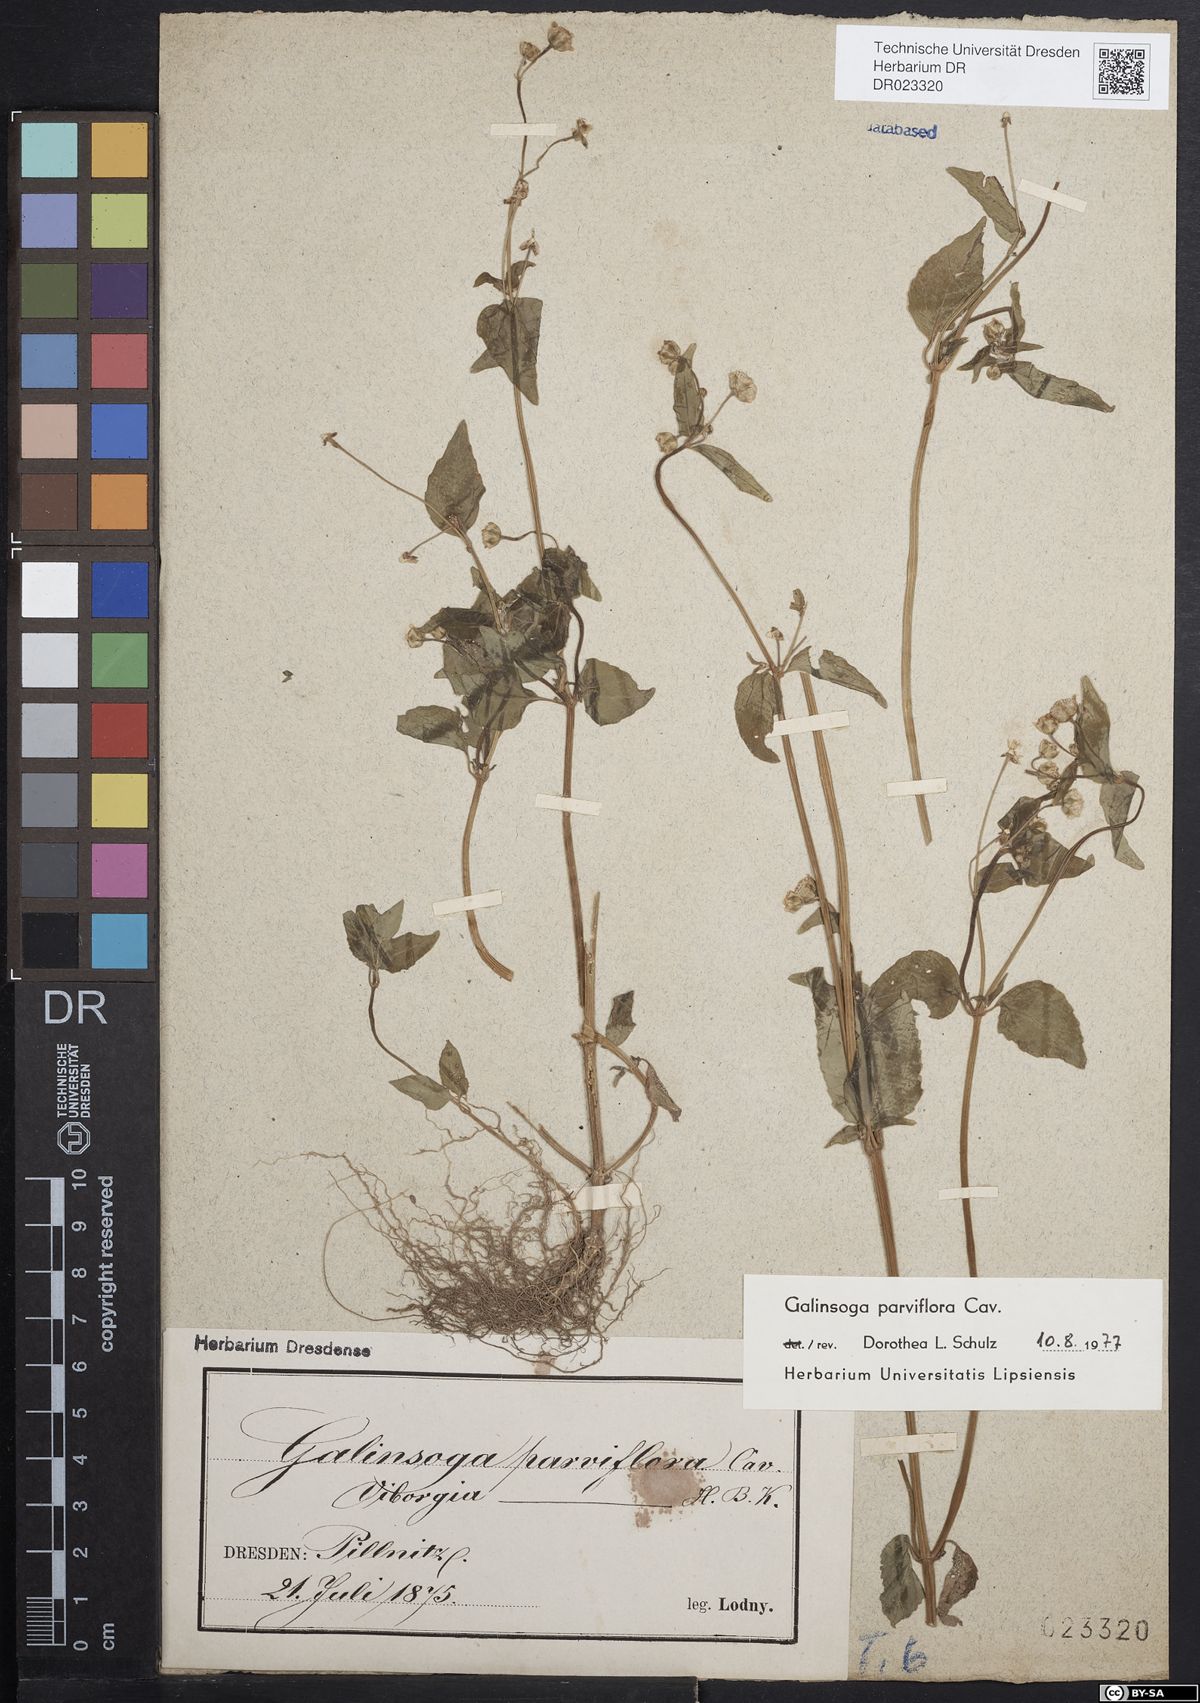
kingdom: Plantae
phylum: Tracheophyta
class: Magnoliopsida
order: Asterales
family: Asteraceae
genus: Galinsoga
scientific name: Galinsoga parviflora
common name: Gallant soldier
